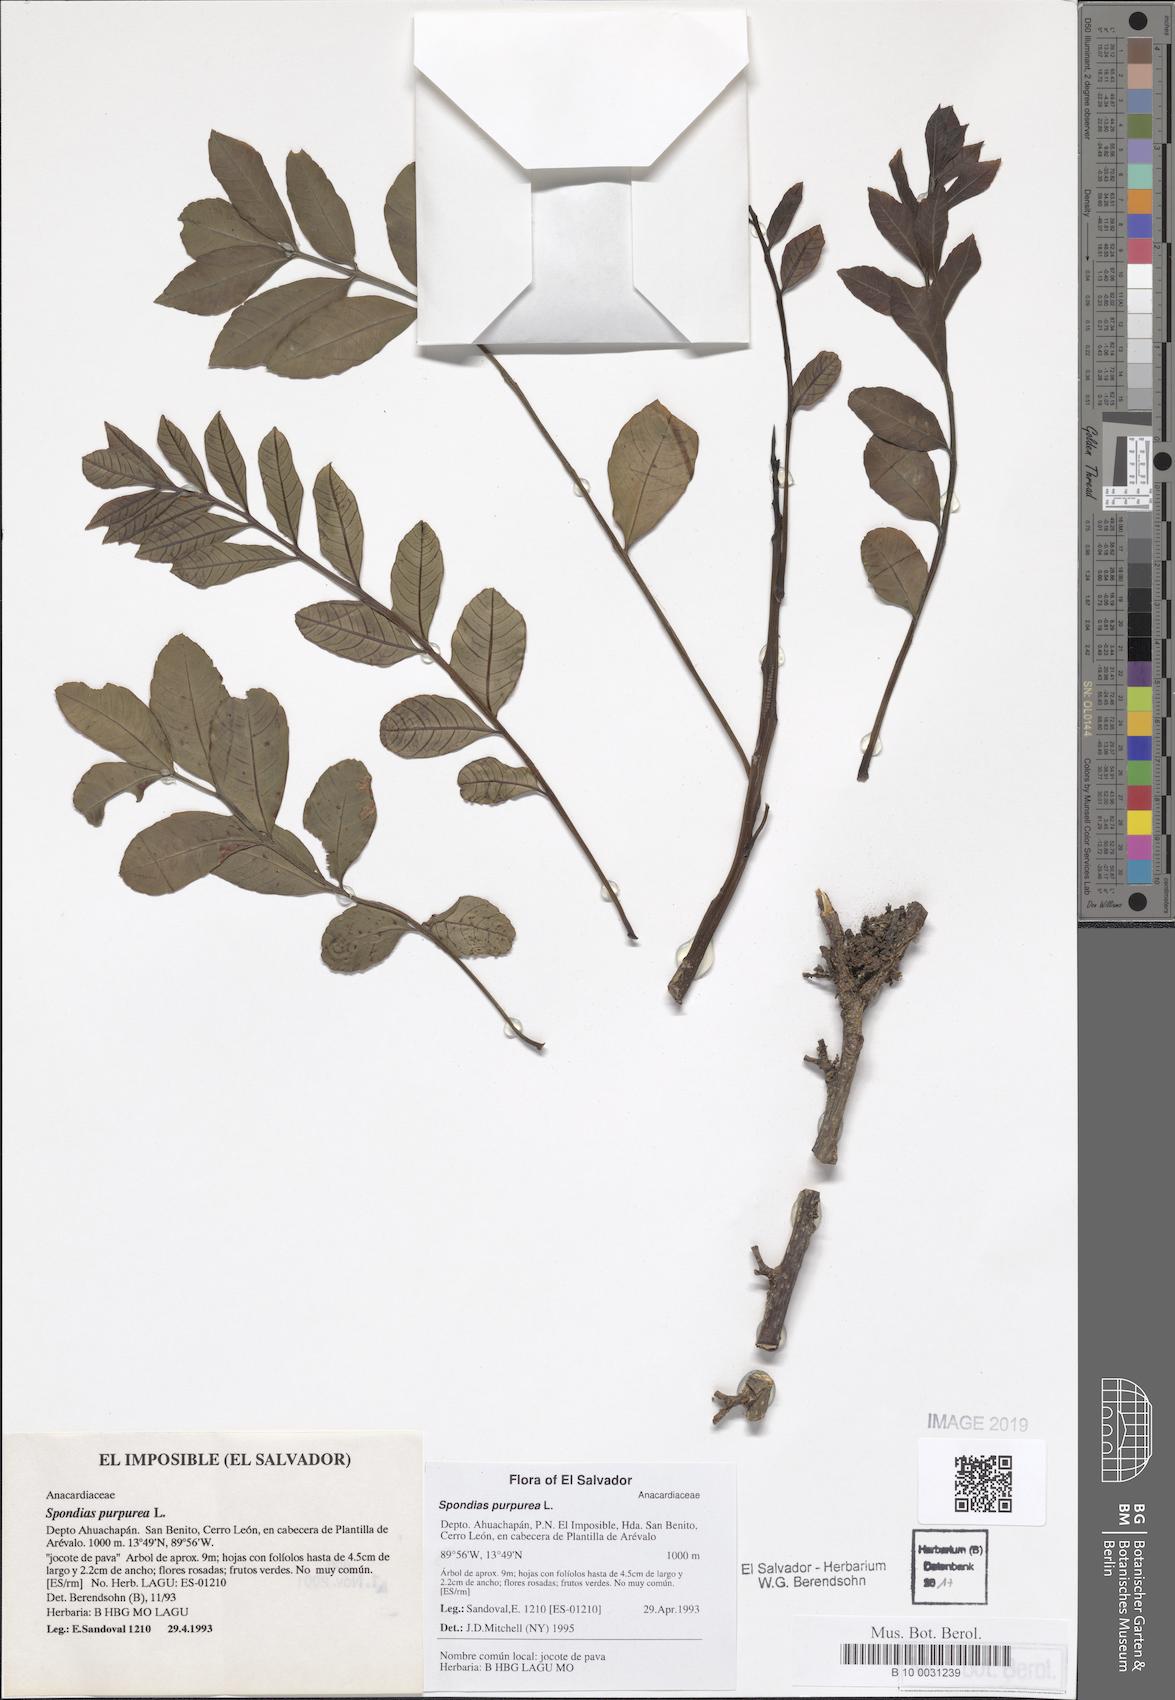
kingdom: Plantae
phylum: Tracheophyta
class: Magnoliopsida
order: Sapindales
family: Anacardiaceae
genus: Spondias
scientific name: Spondias purpurea
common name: Purple mombin
